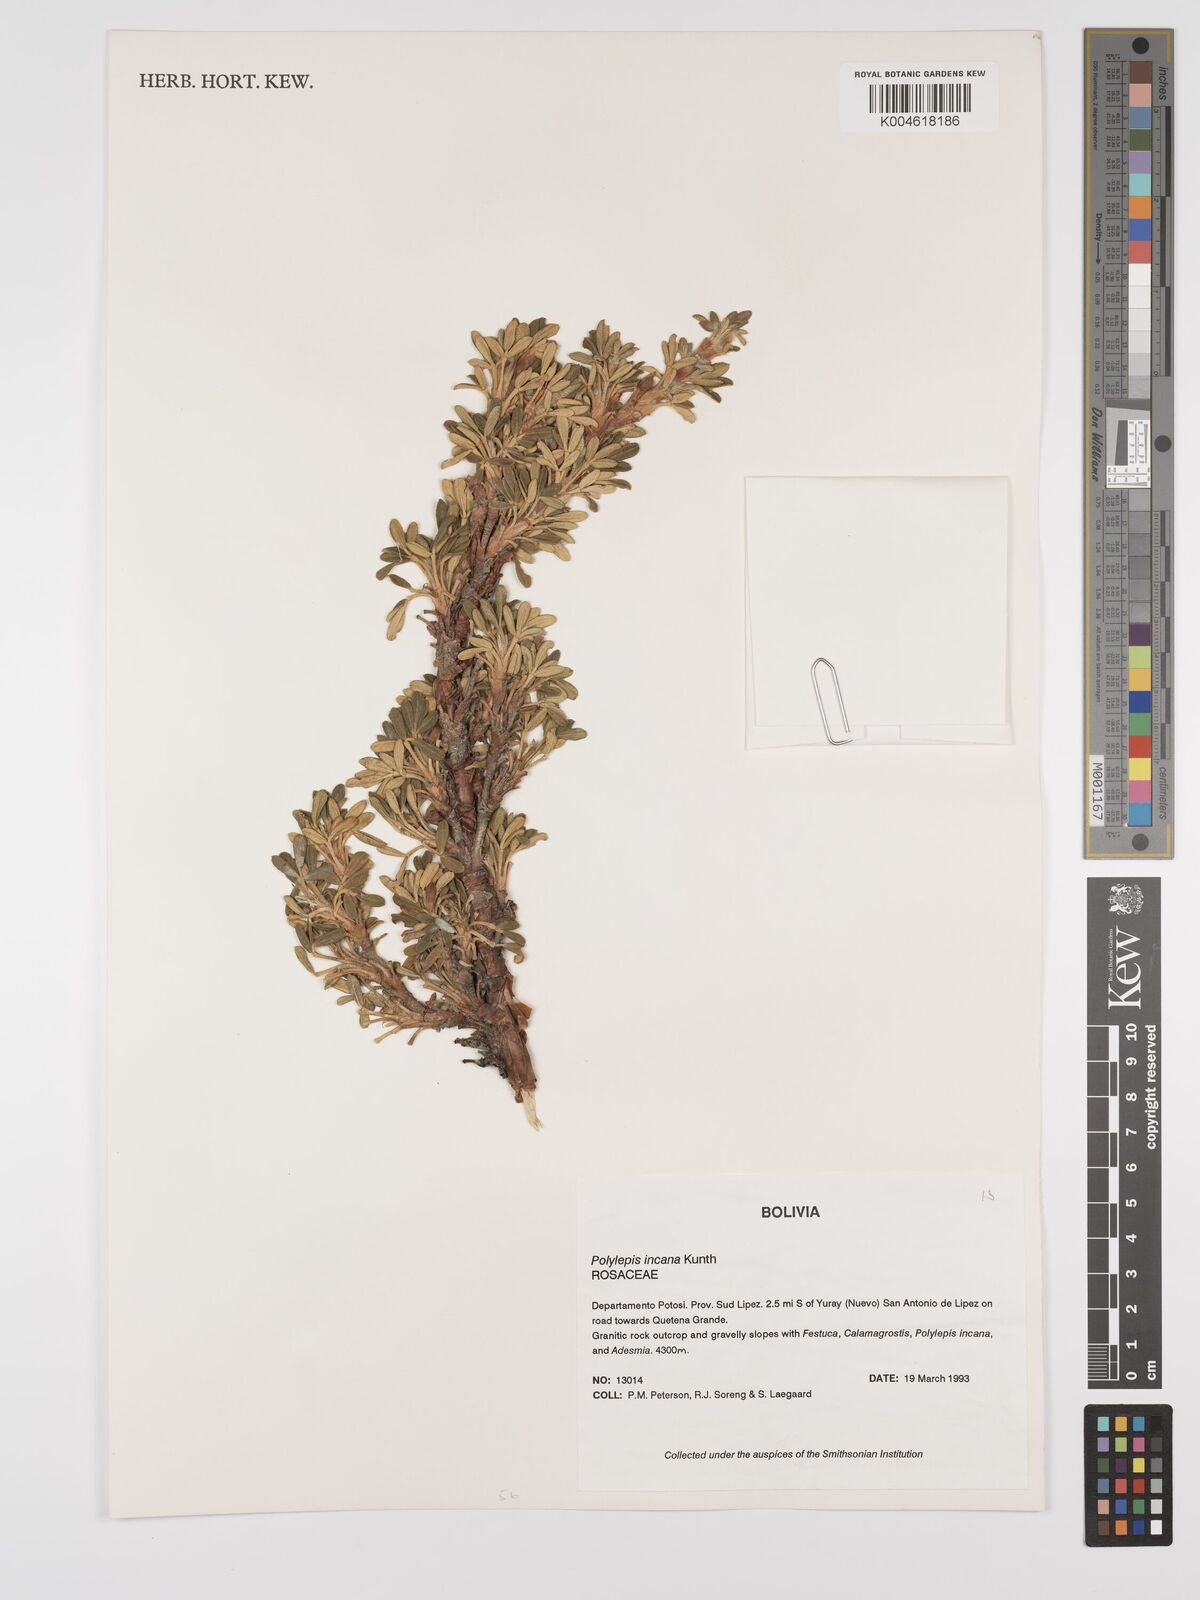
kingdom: Plantae
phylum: Tracheophyta
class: Magnoliopsida
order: Rosales
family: Rosaceae
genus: Polylepis
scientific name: Polylepis incana
